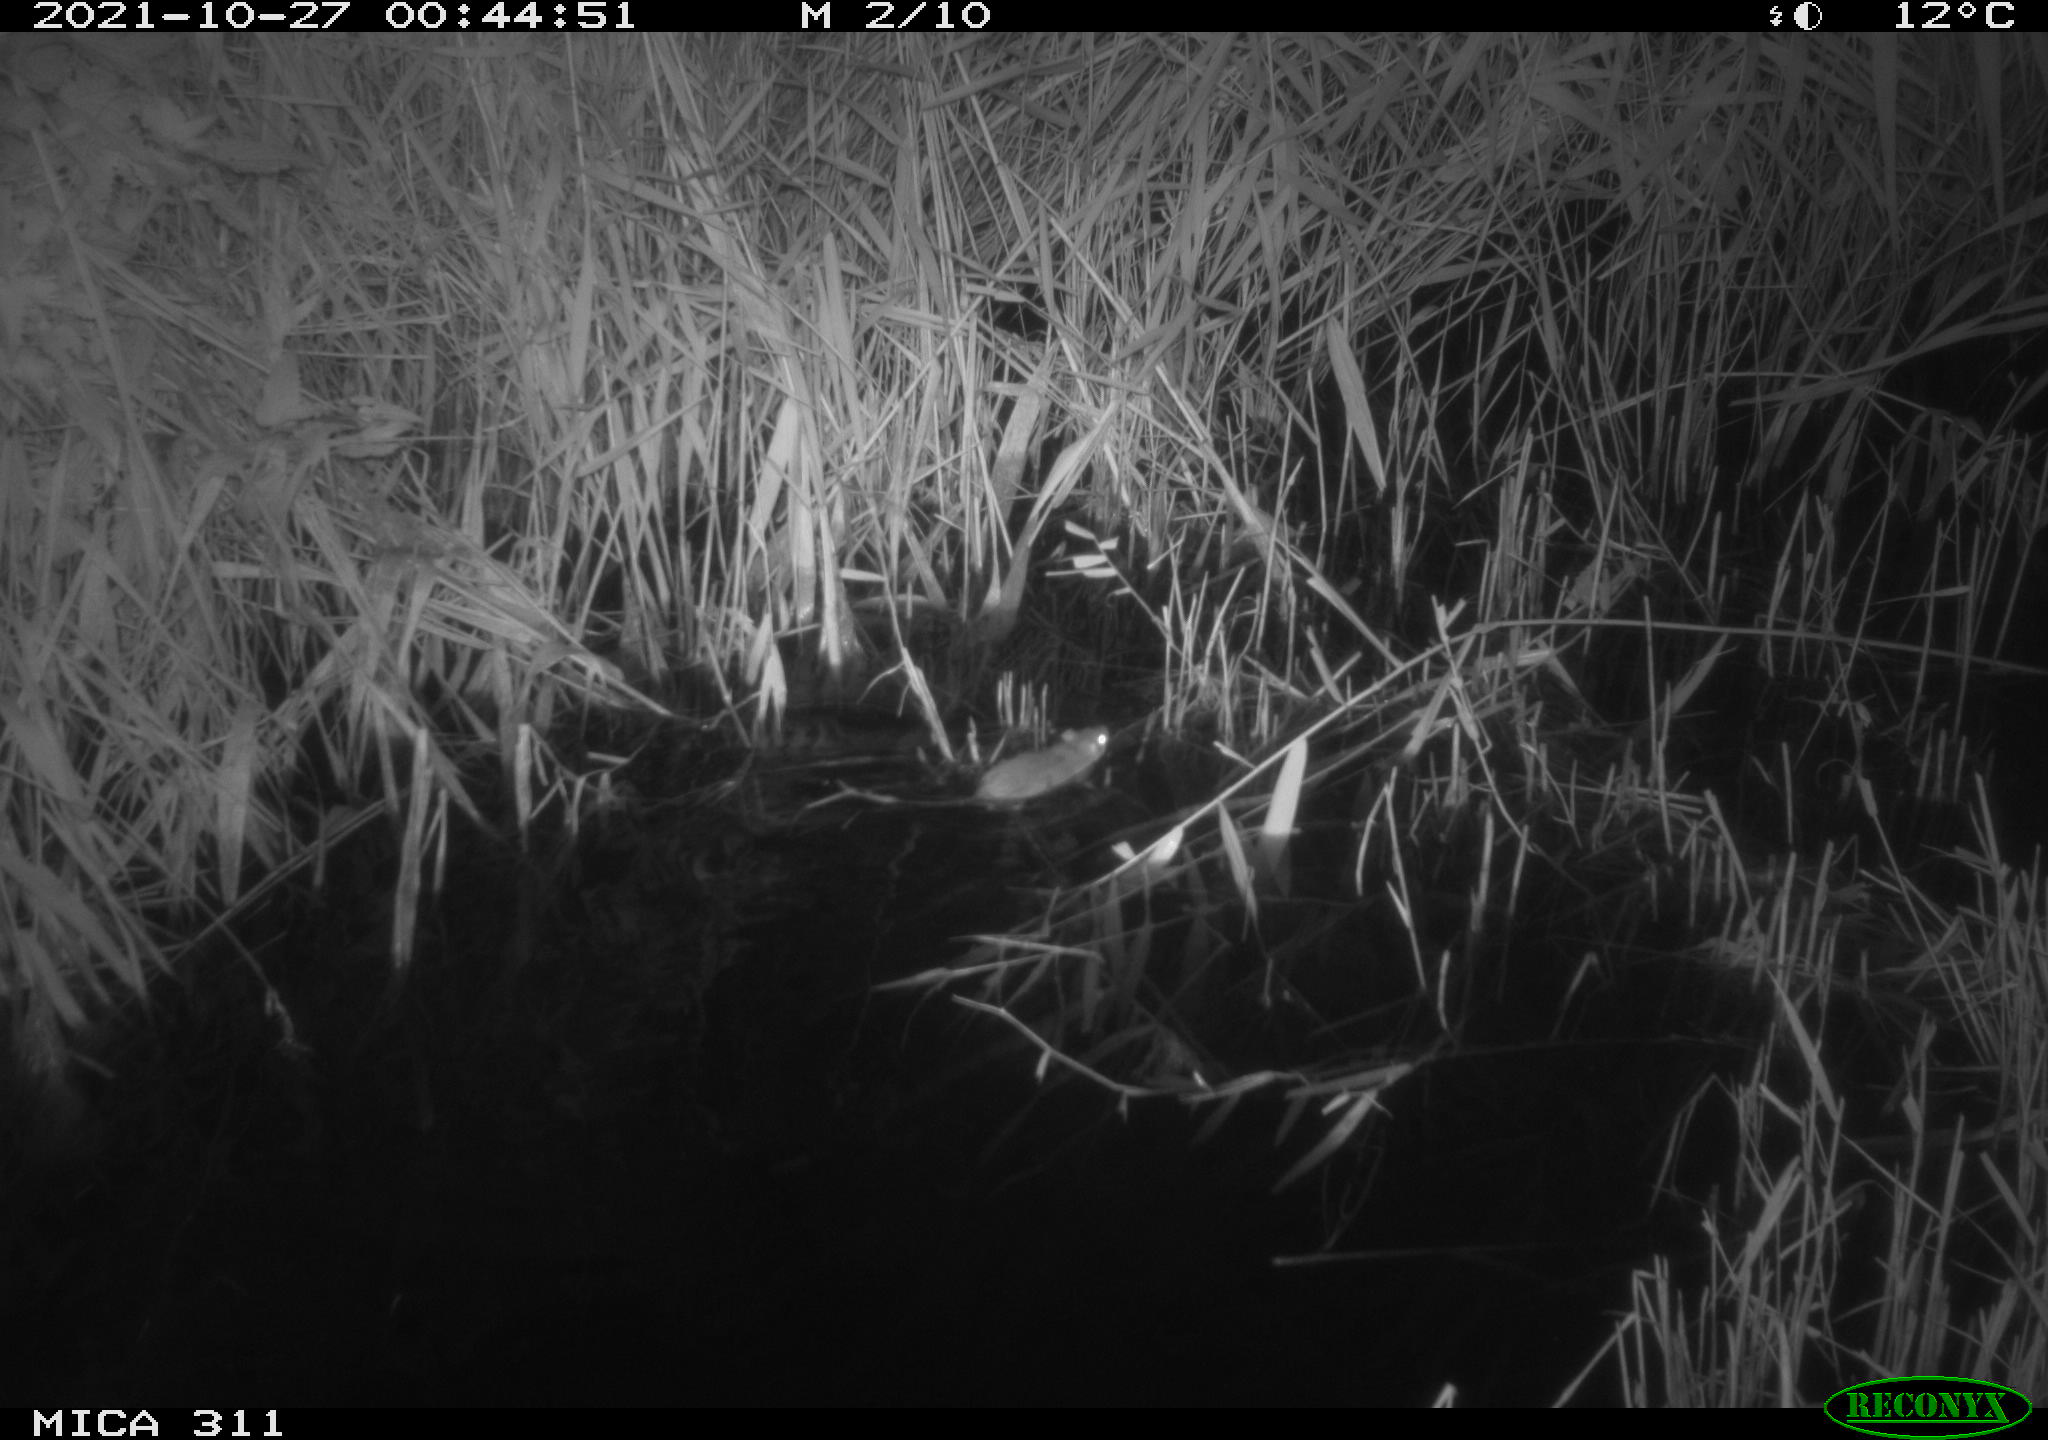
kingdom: Animalia
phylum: Chordata
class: Mammalia
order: Rodentia
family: Muridae
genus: Rattus
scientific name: Rattus norvegicus
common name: Brown rat
